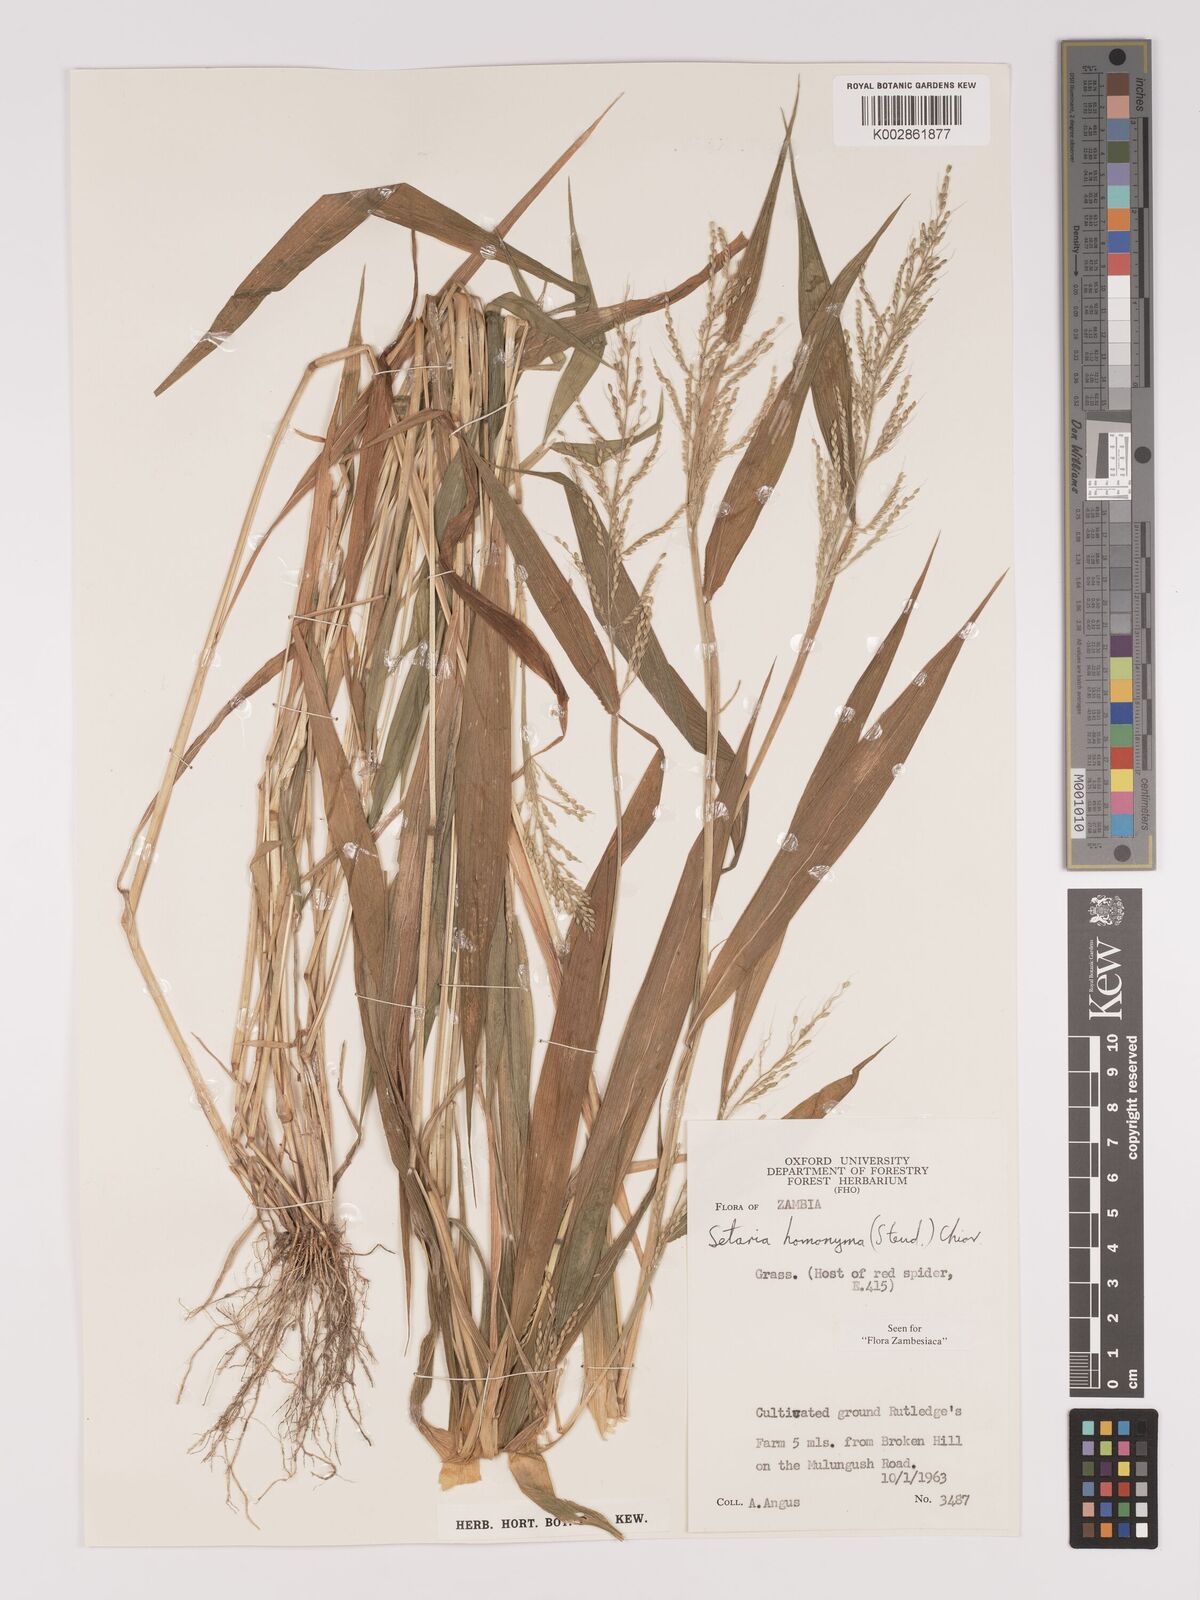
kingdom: Plantae
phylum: Tracheophyta
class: Liliopsida
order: Poales
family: Poaceae
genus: Setaria
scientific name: Setaria homonyma
